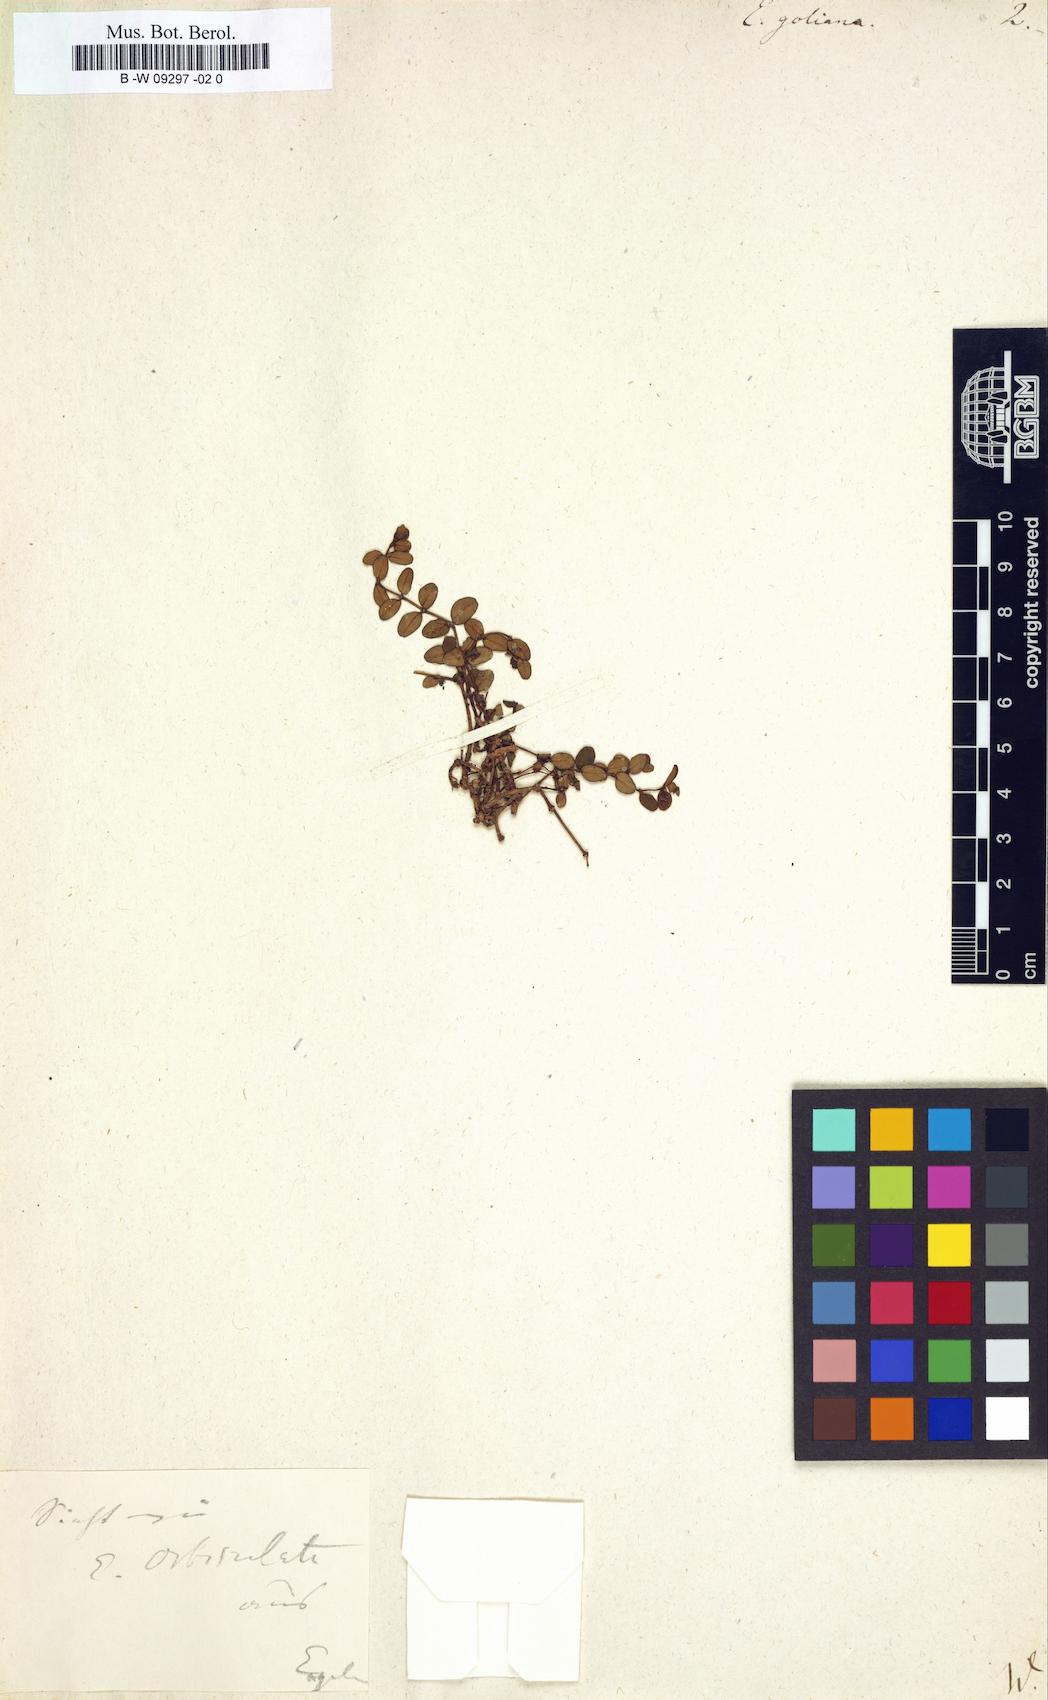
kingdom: Plantae
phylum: Tracheophyta
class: Magnoliopsida
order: Malpighiales
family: Euphorbiaceae
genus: Euphorbia
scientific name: Euphorbia goliana
